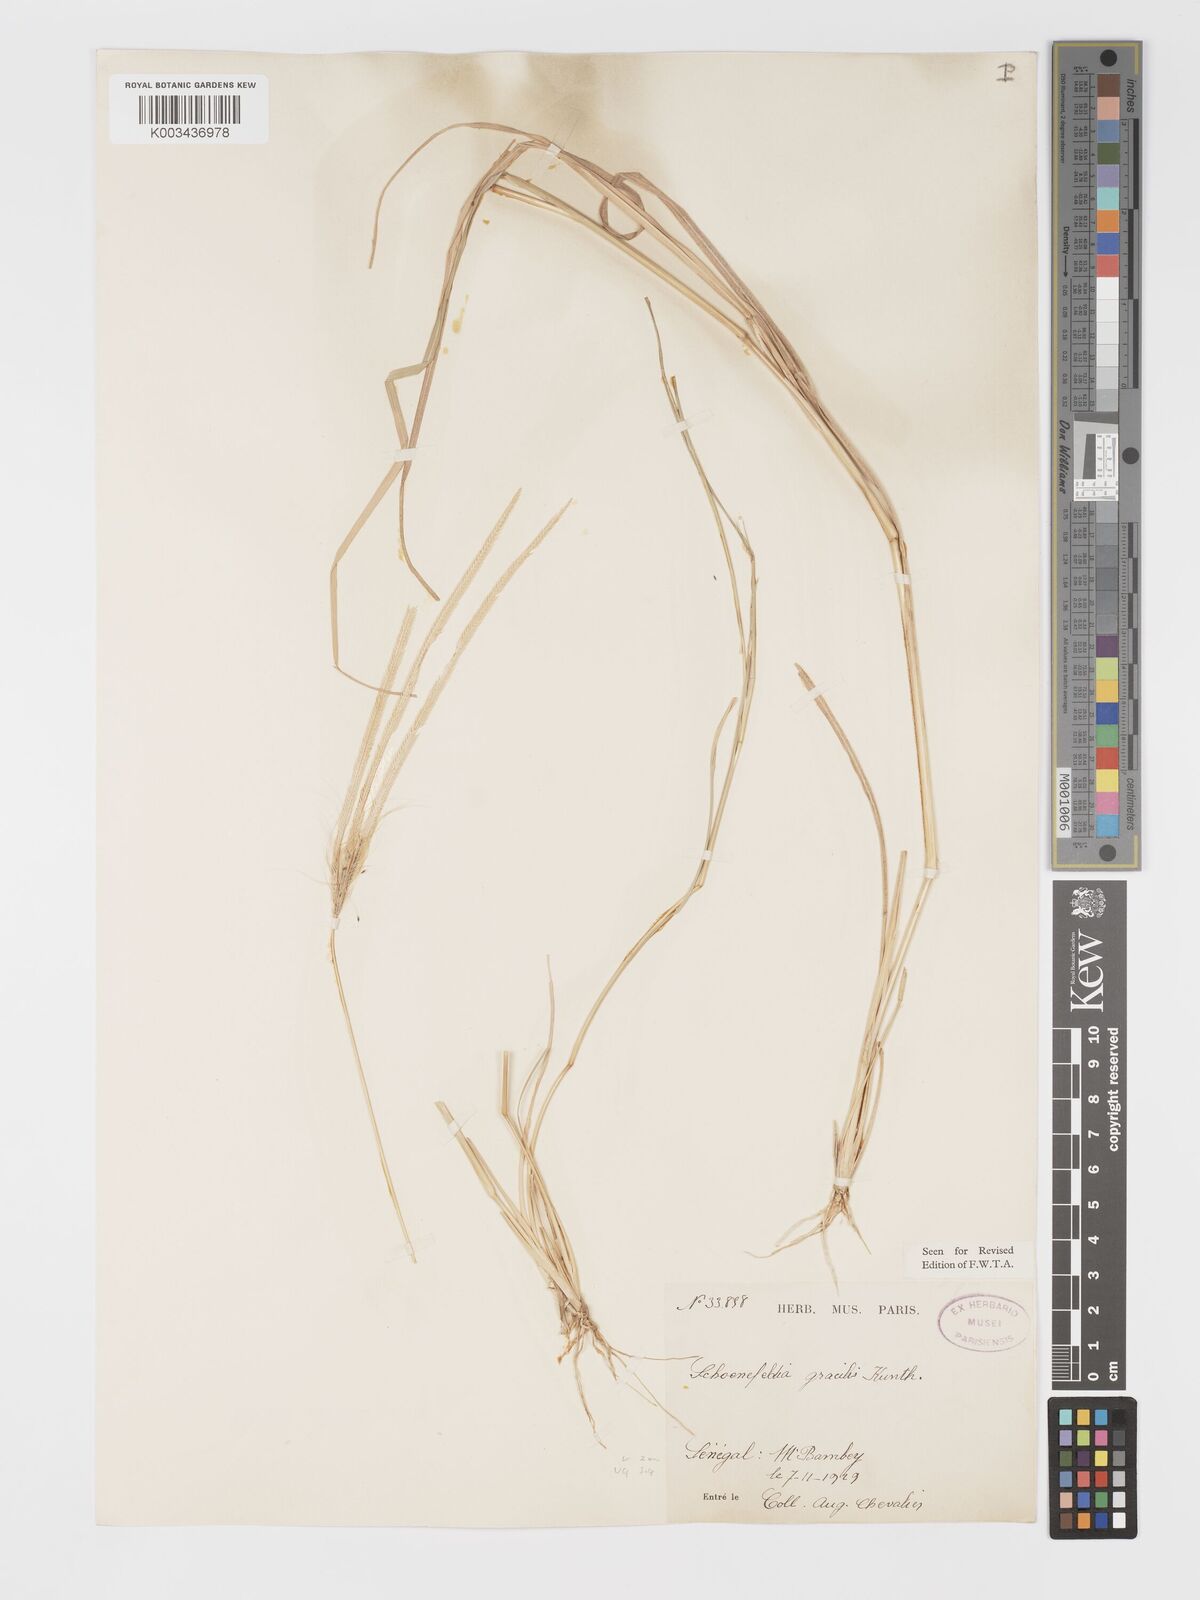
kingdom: Plantae
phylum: Tracheophyta
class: Liliopsida
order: Poales
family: Poaceae
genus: Schoenefeldia
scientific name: Schoenefeldia gracilis
